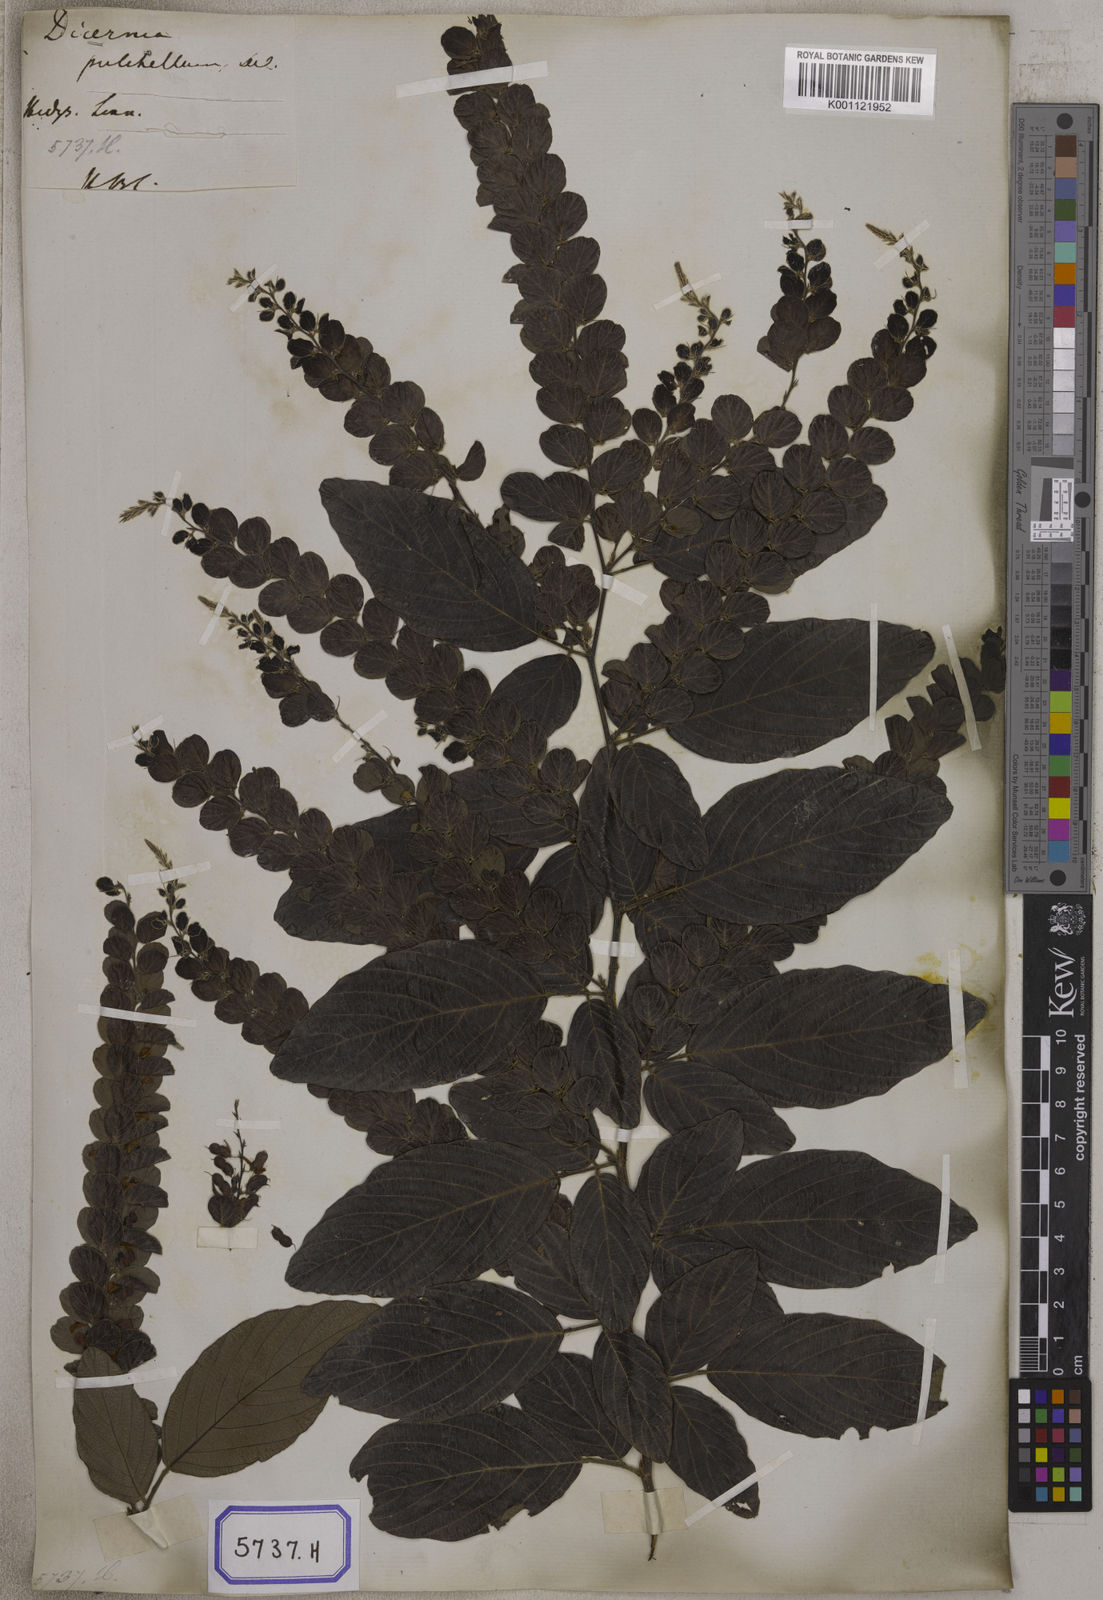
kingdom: Plantae
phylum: Tracheophyta
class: Magnoliopsida
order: Fabales
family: Fabaceae
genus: Phyllodium
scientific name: Phyllodium pulchellum
